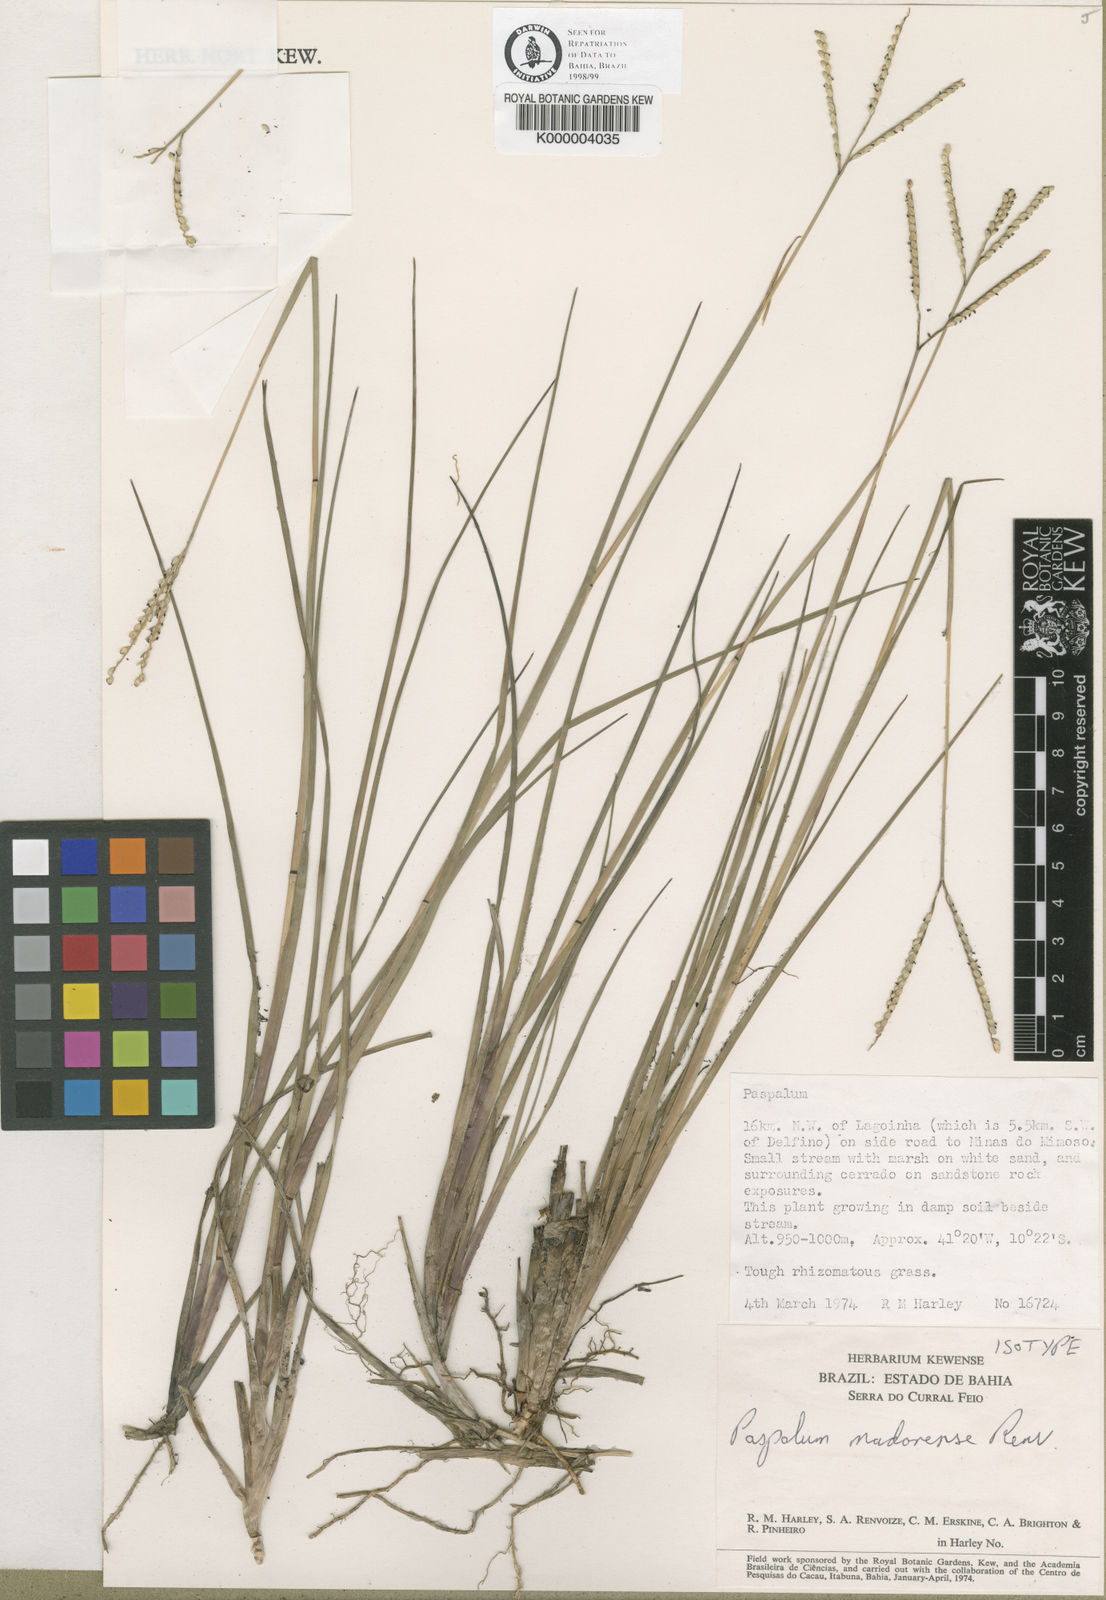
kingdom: Plantae
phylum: Tracheophyta
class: Liliopsida
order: Poales
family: Poaceae
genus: Paspalum
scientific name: Paspalum madorense
